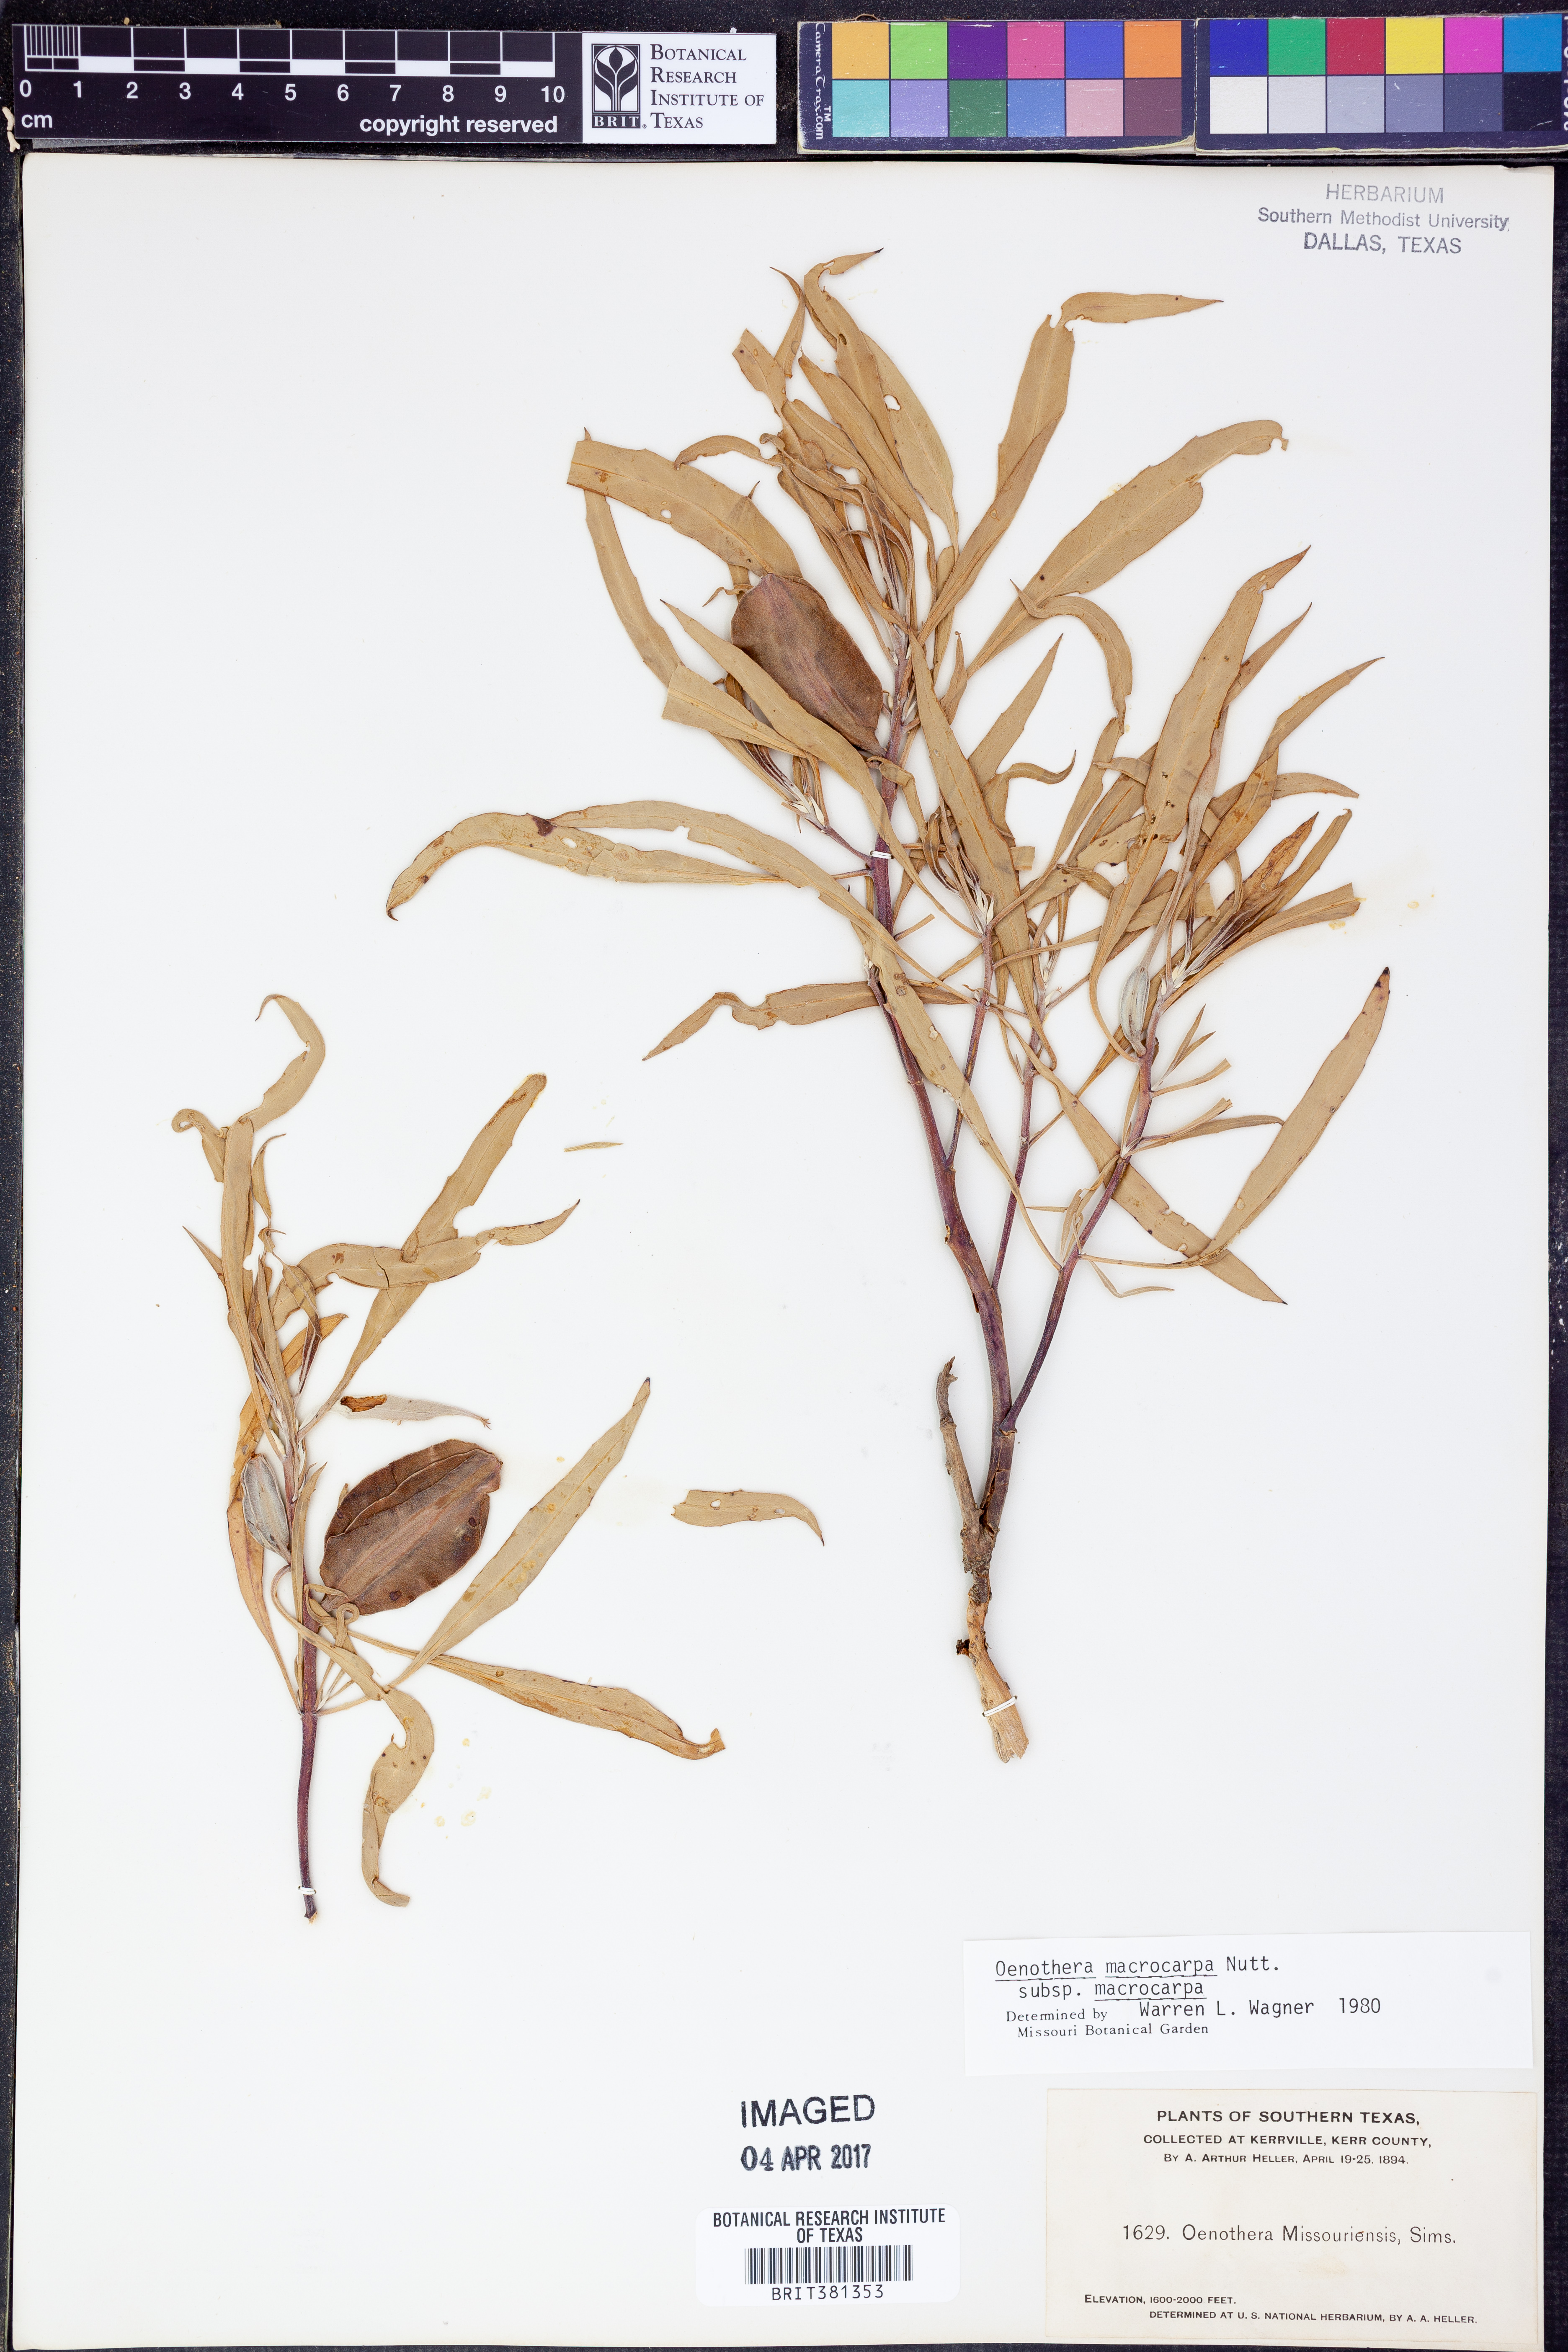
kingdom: Plantae
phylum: Tracheophyta
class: Magnoliopsida
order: Myrtales
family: Onagraceae
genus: Oenothera
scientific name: Oenothera macrocarpa
